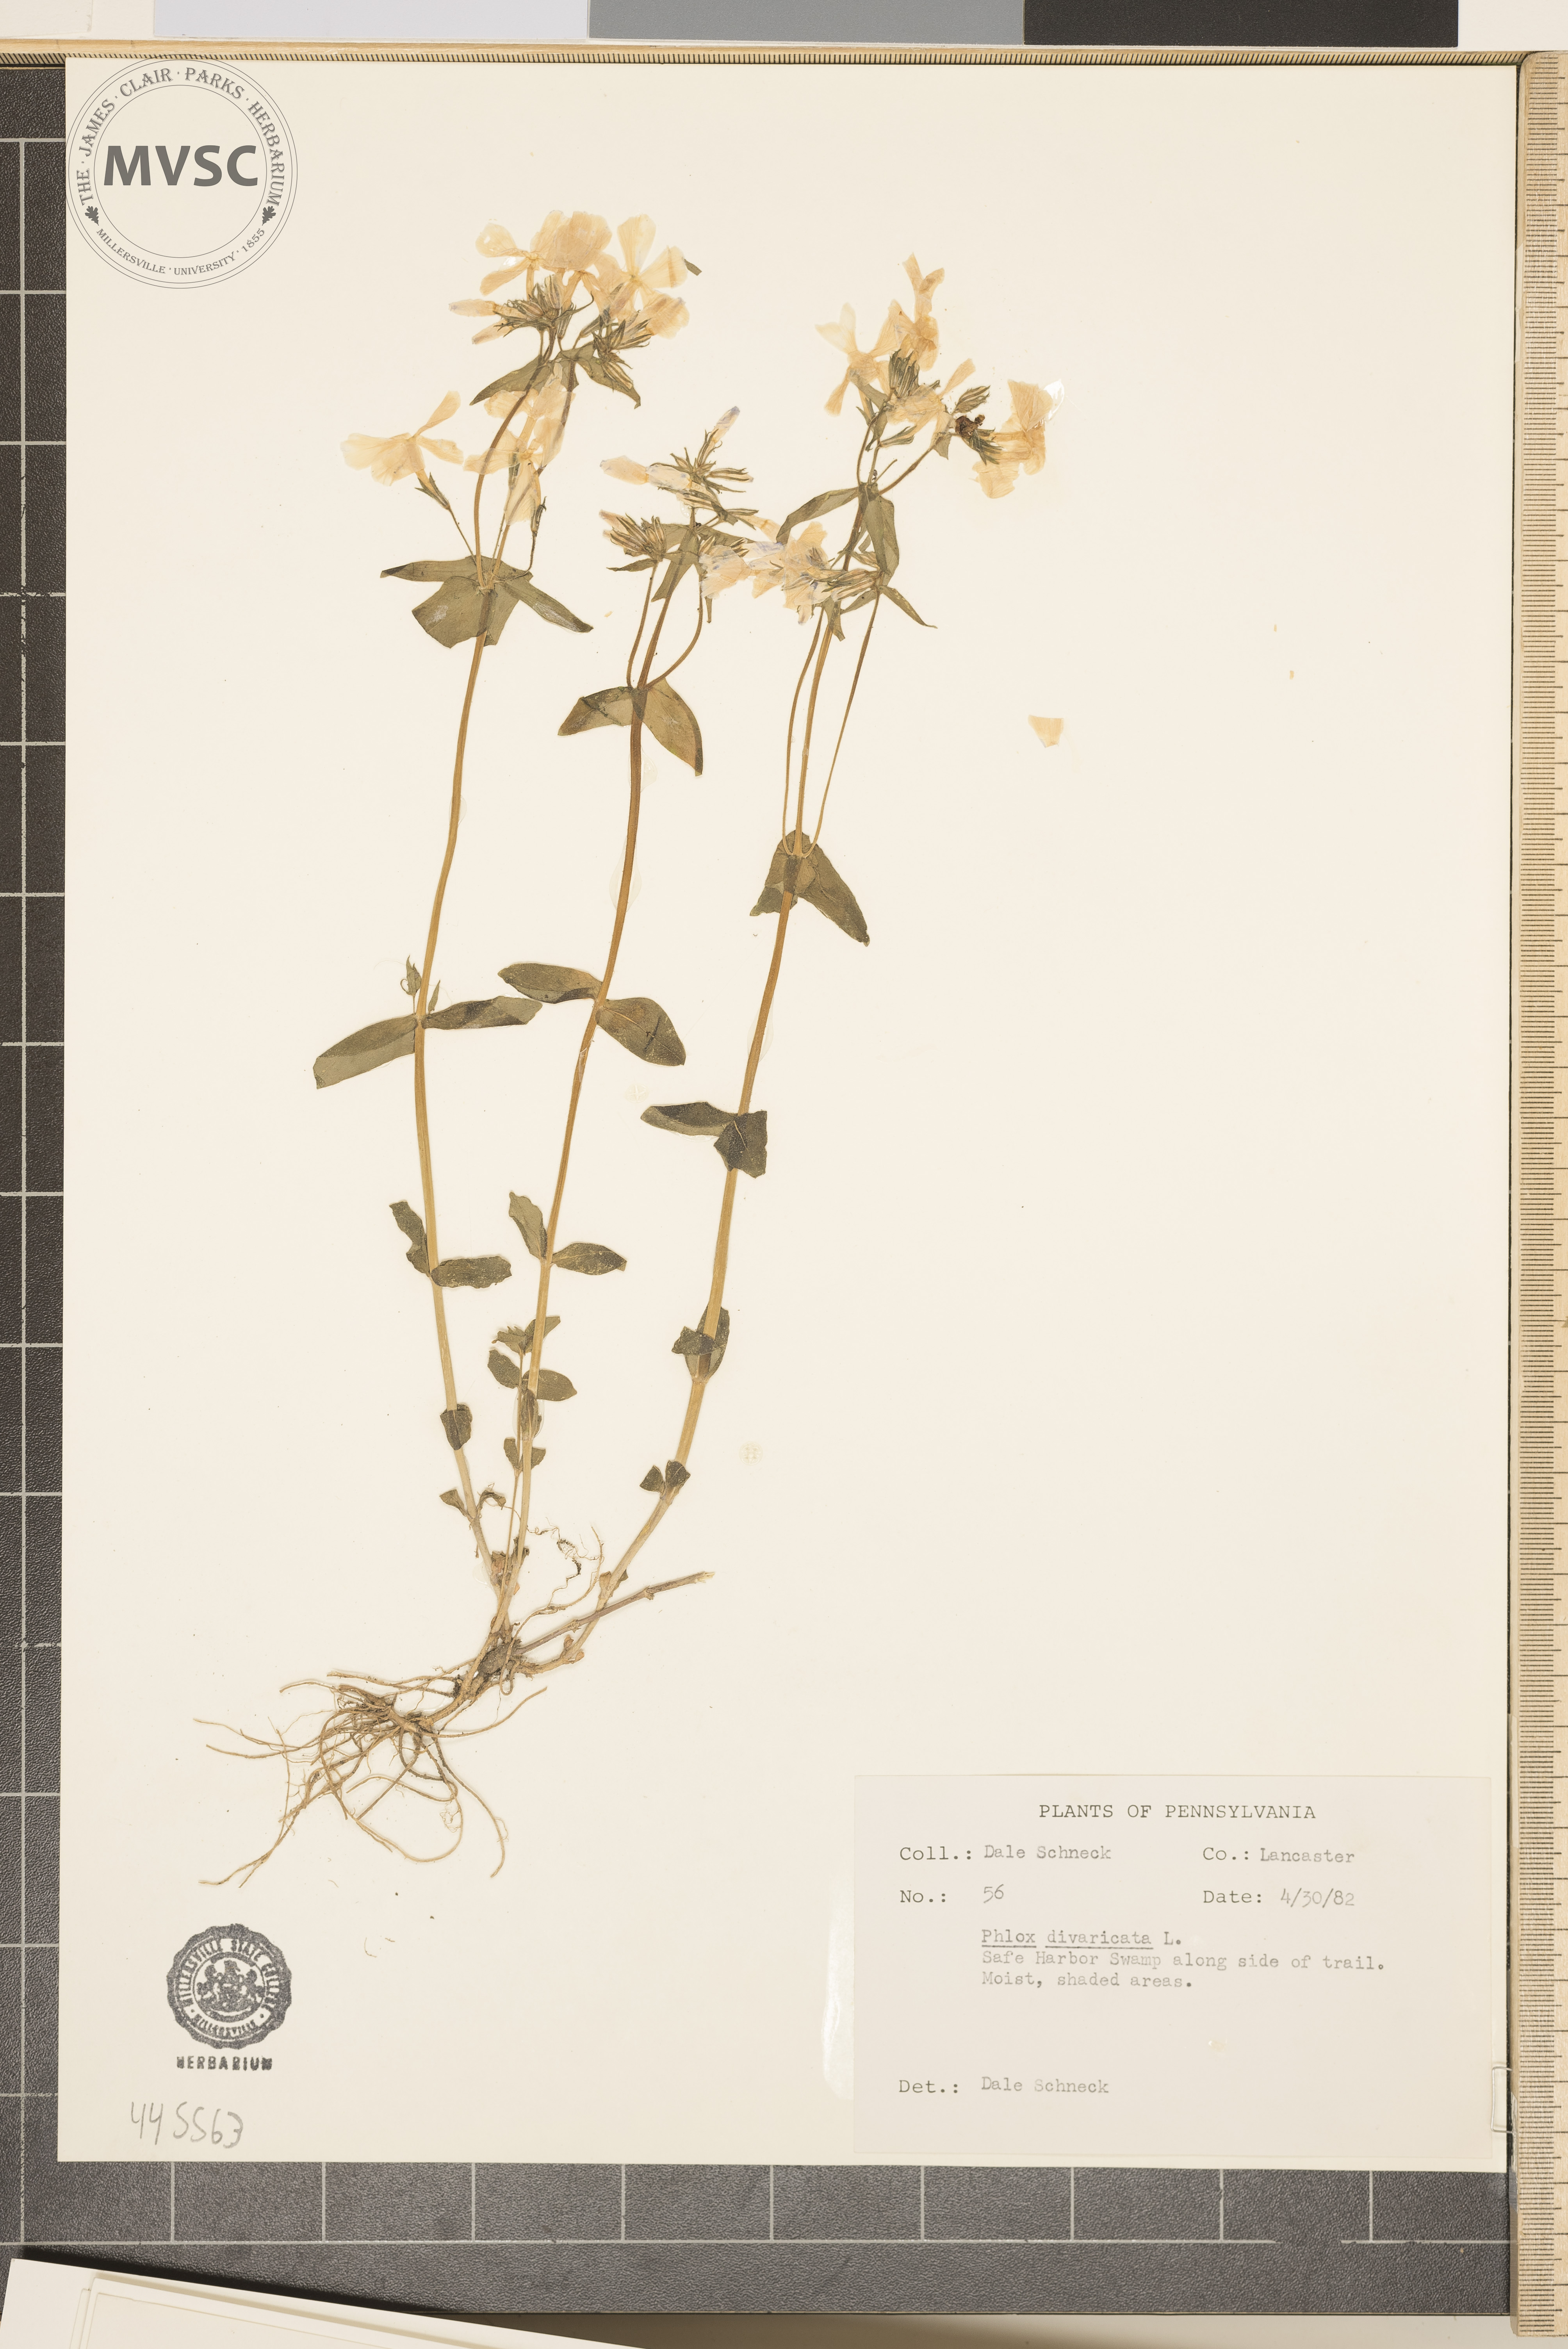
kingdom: Plantae
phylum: Tracheophyta
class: Magnoliopsida
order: Ericales
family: Polemoniaceae
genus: Phlox
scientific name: Phlox divaricata
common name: Blue phlox
